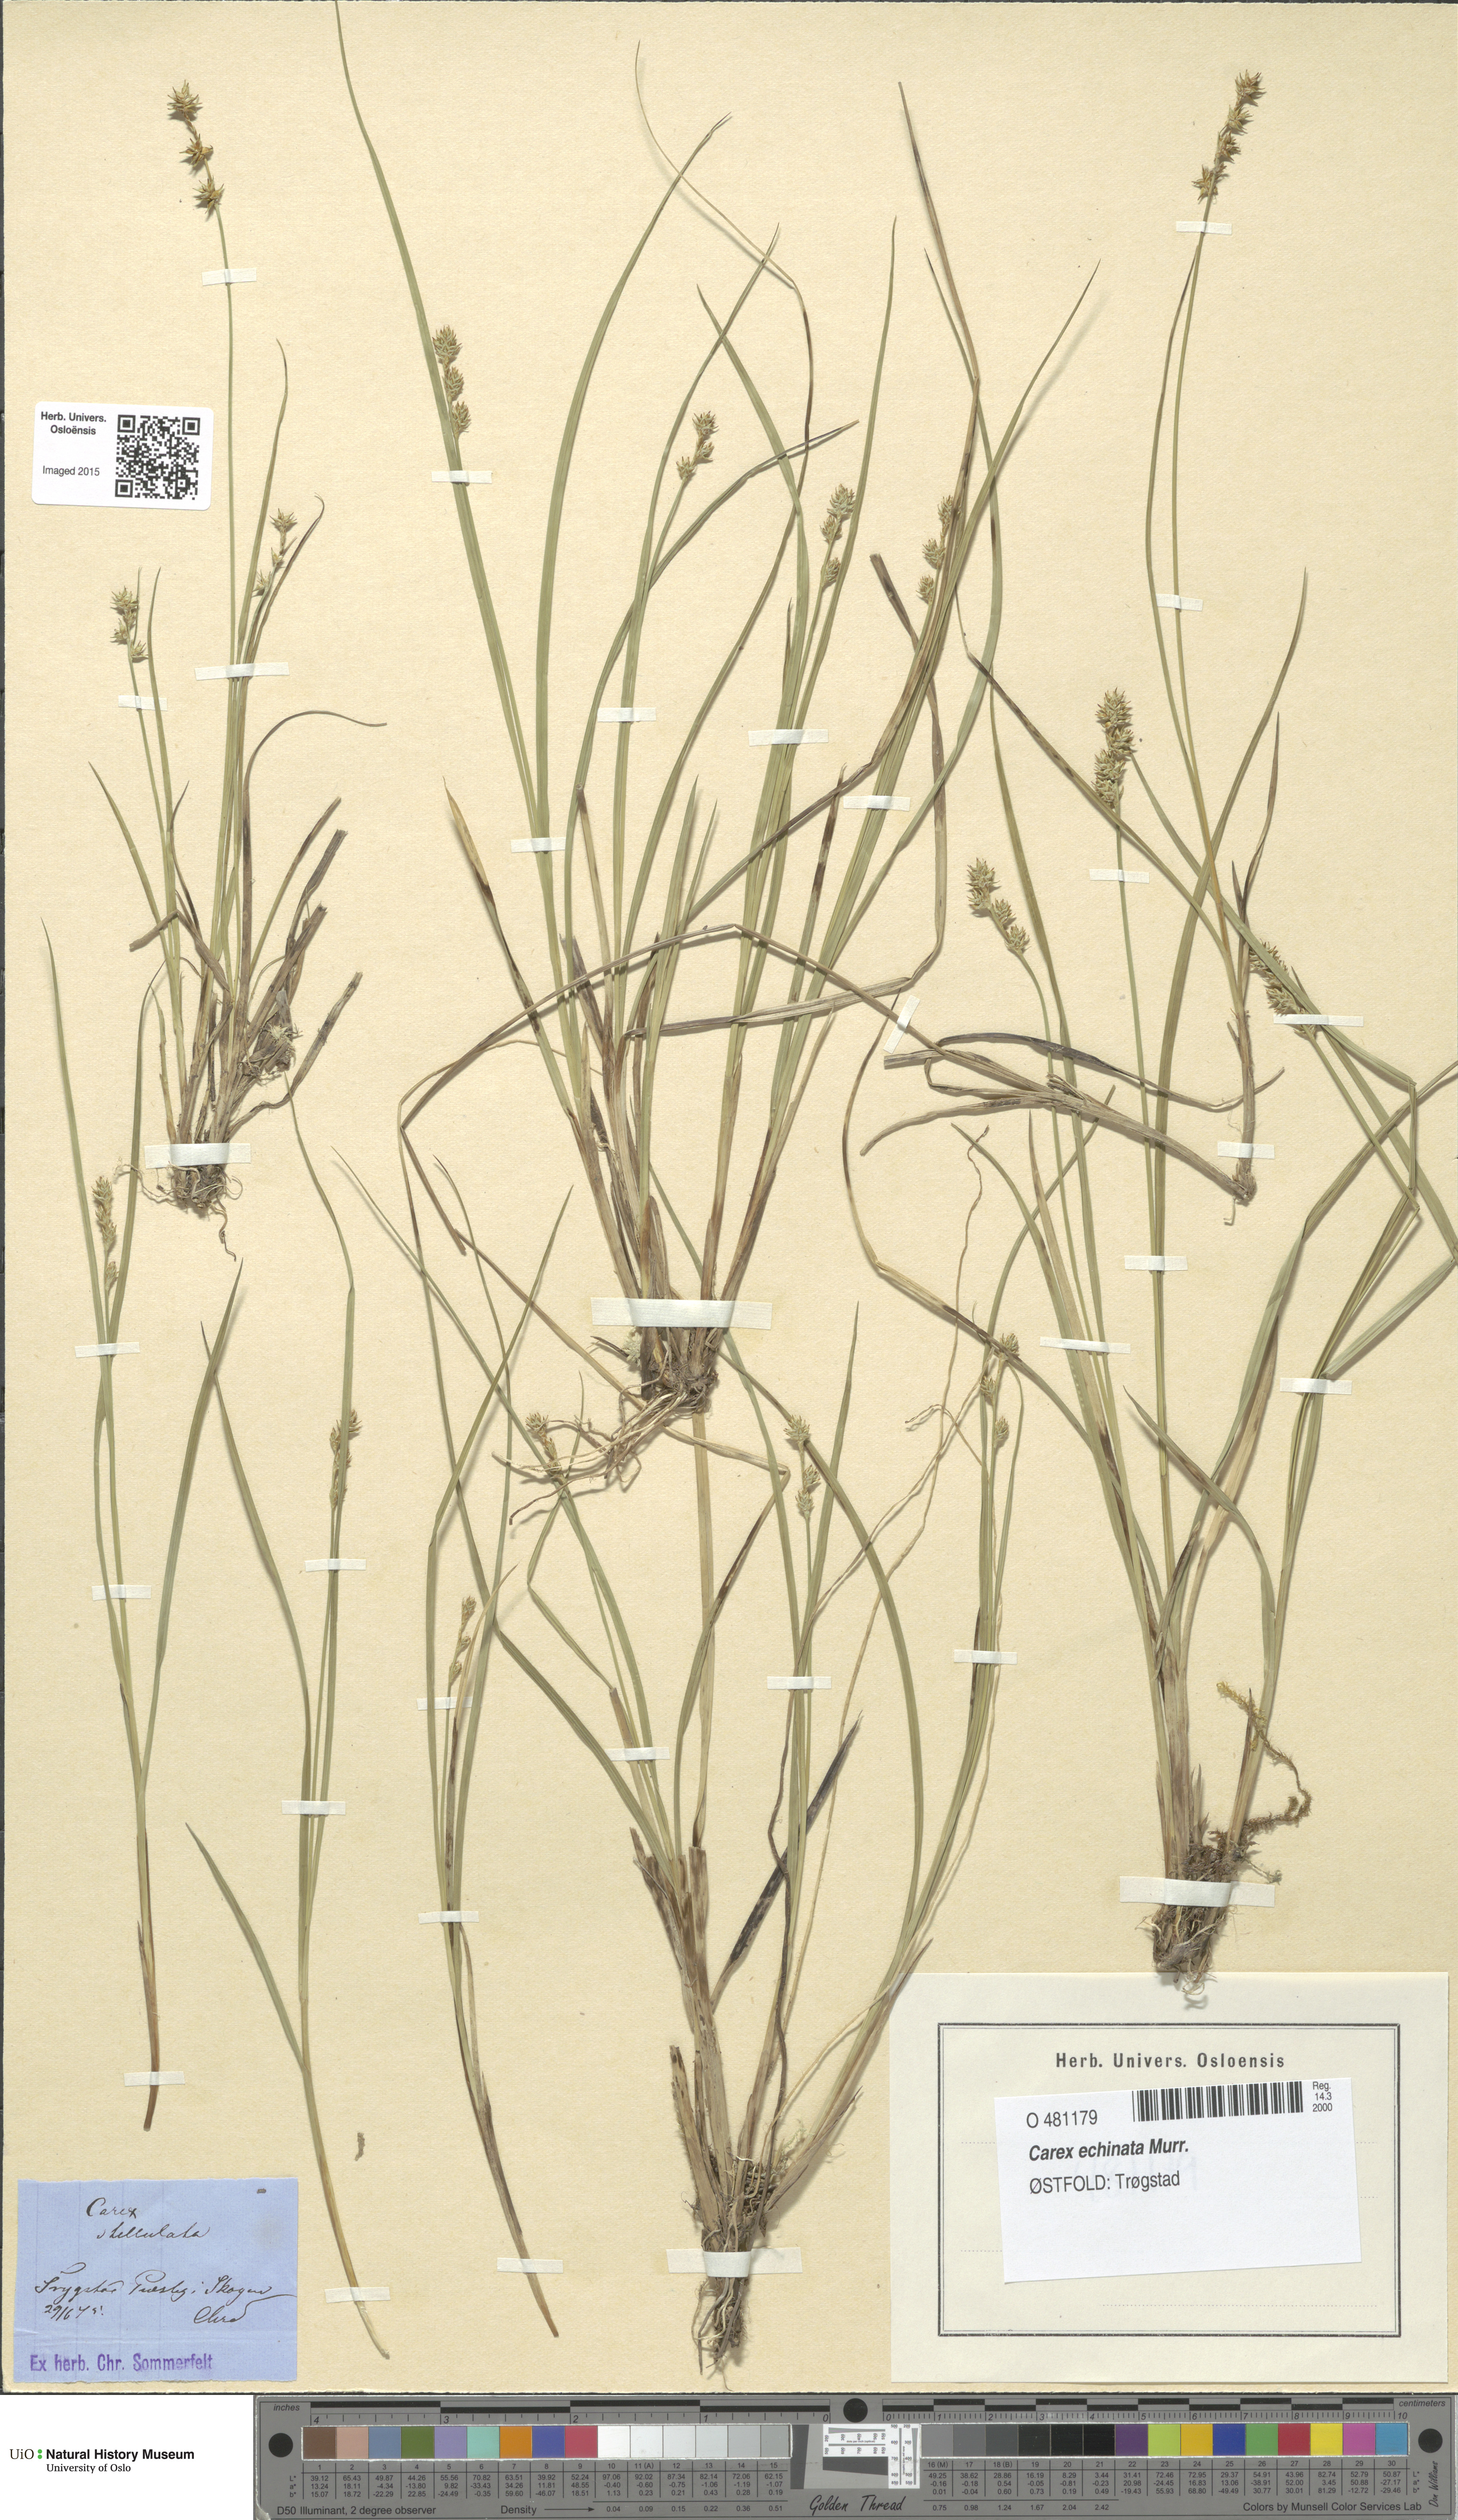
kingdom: Plantae
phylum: Tracheophyta
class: Liliopsida
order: Poales
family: Cyperaceae
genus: Carex
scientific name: Carex echinata
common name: Star sedge
